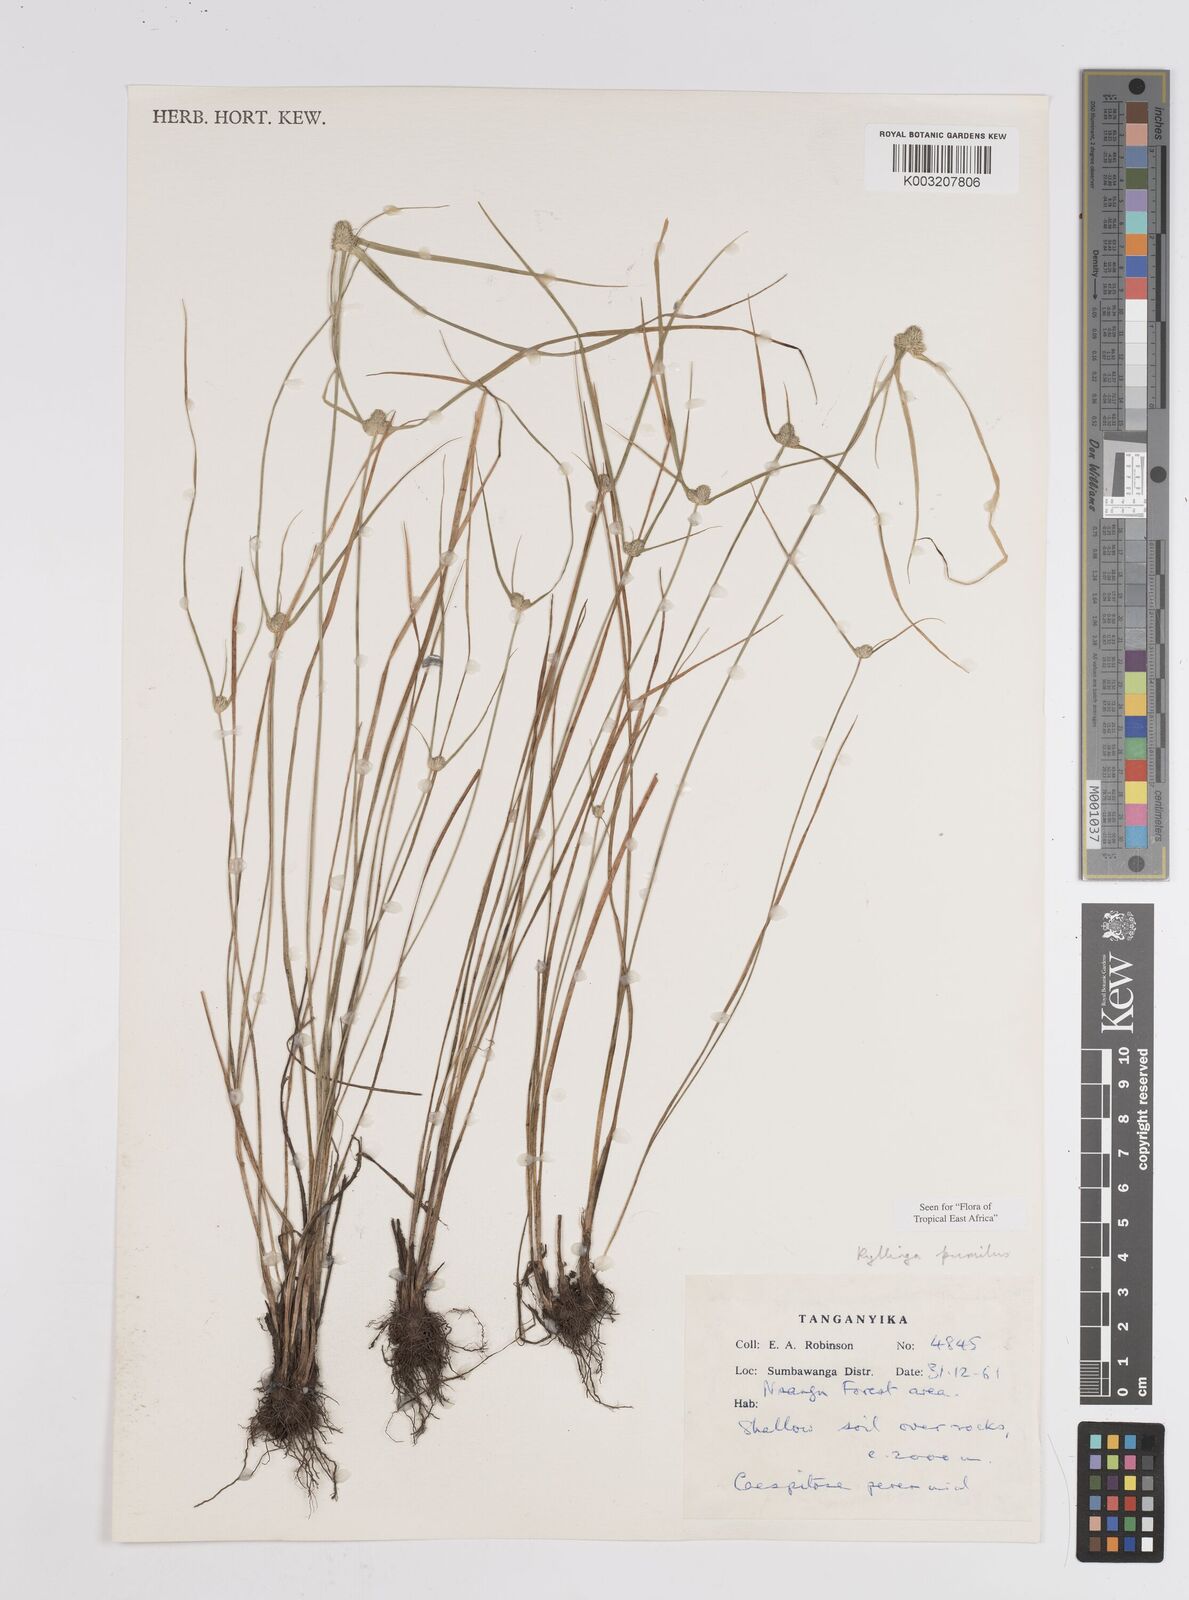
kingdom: Plantae
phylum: Tracheophyta
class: Liliopsida
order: Poales
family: Cyperaceae
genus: Cyperus
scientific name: Cyperus hortensis
